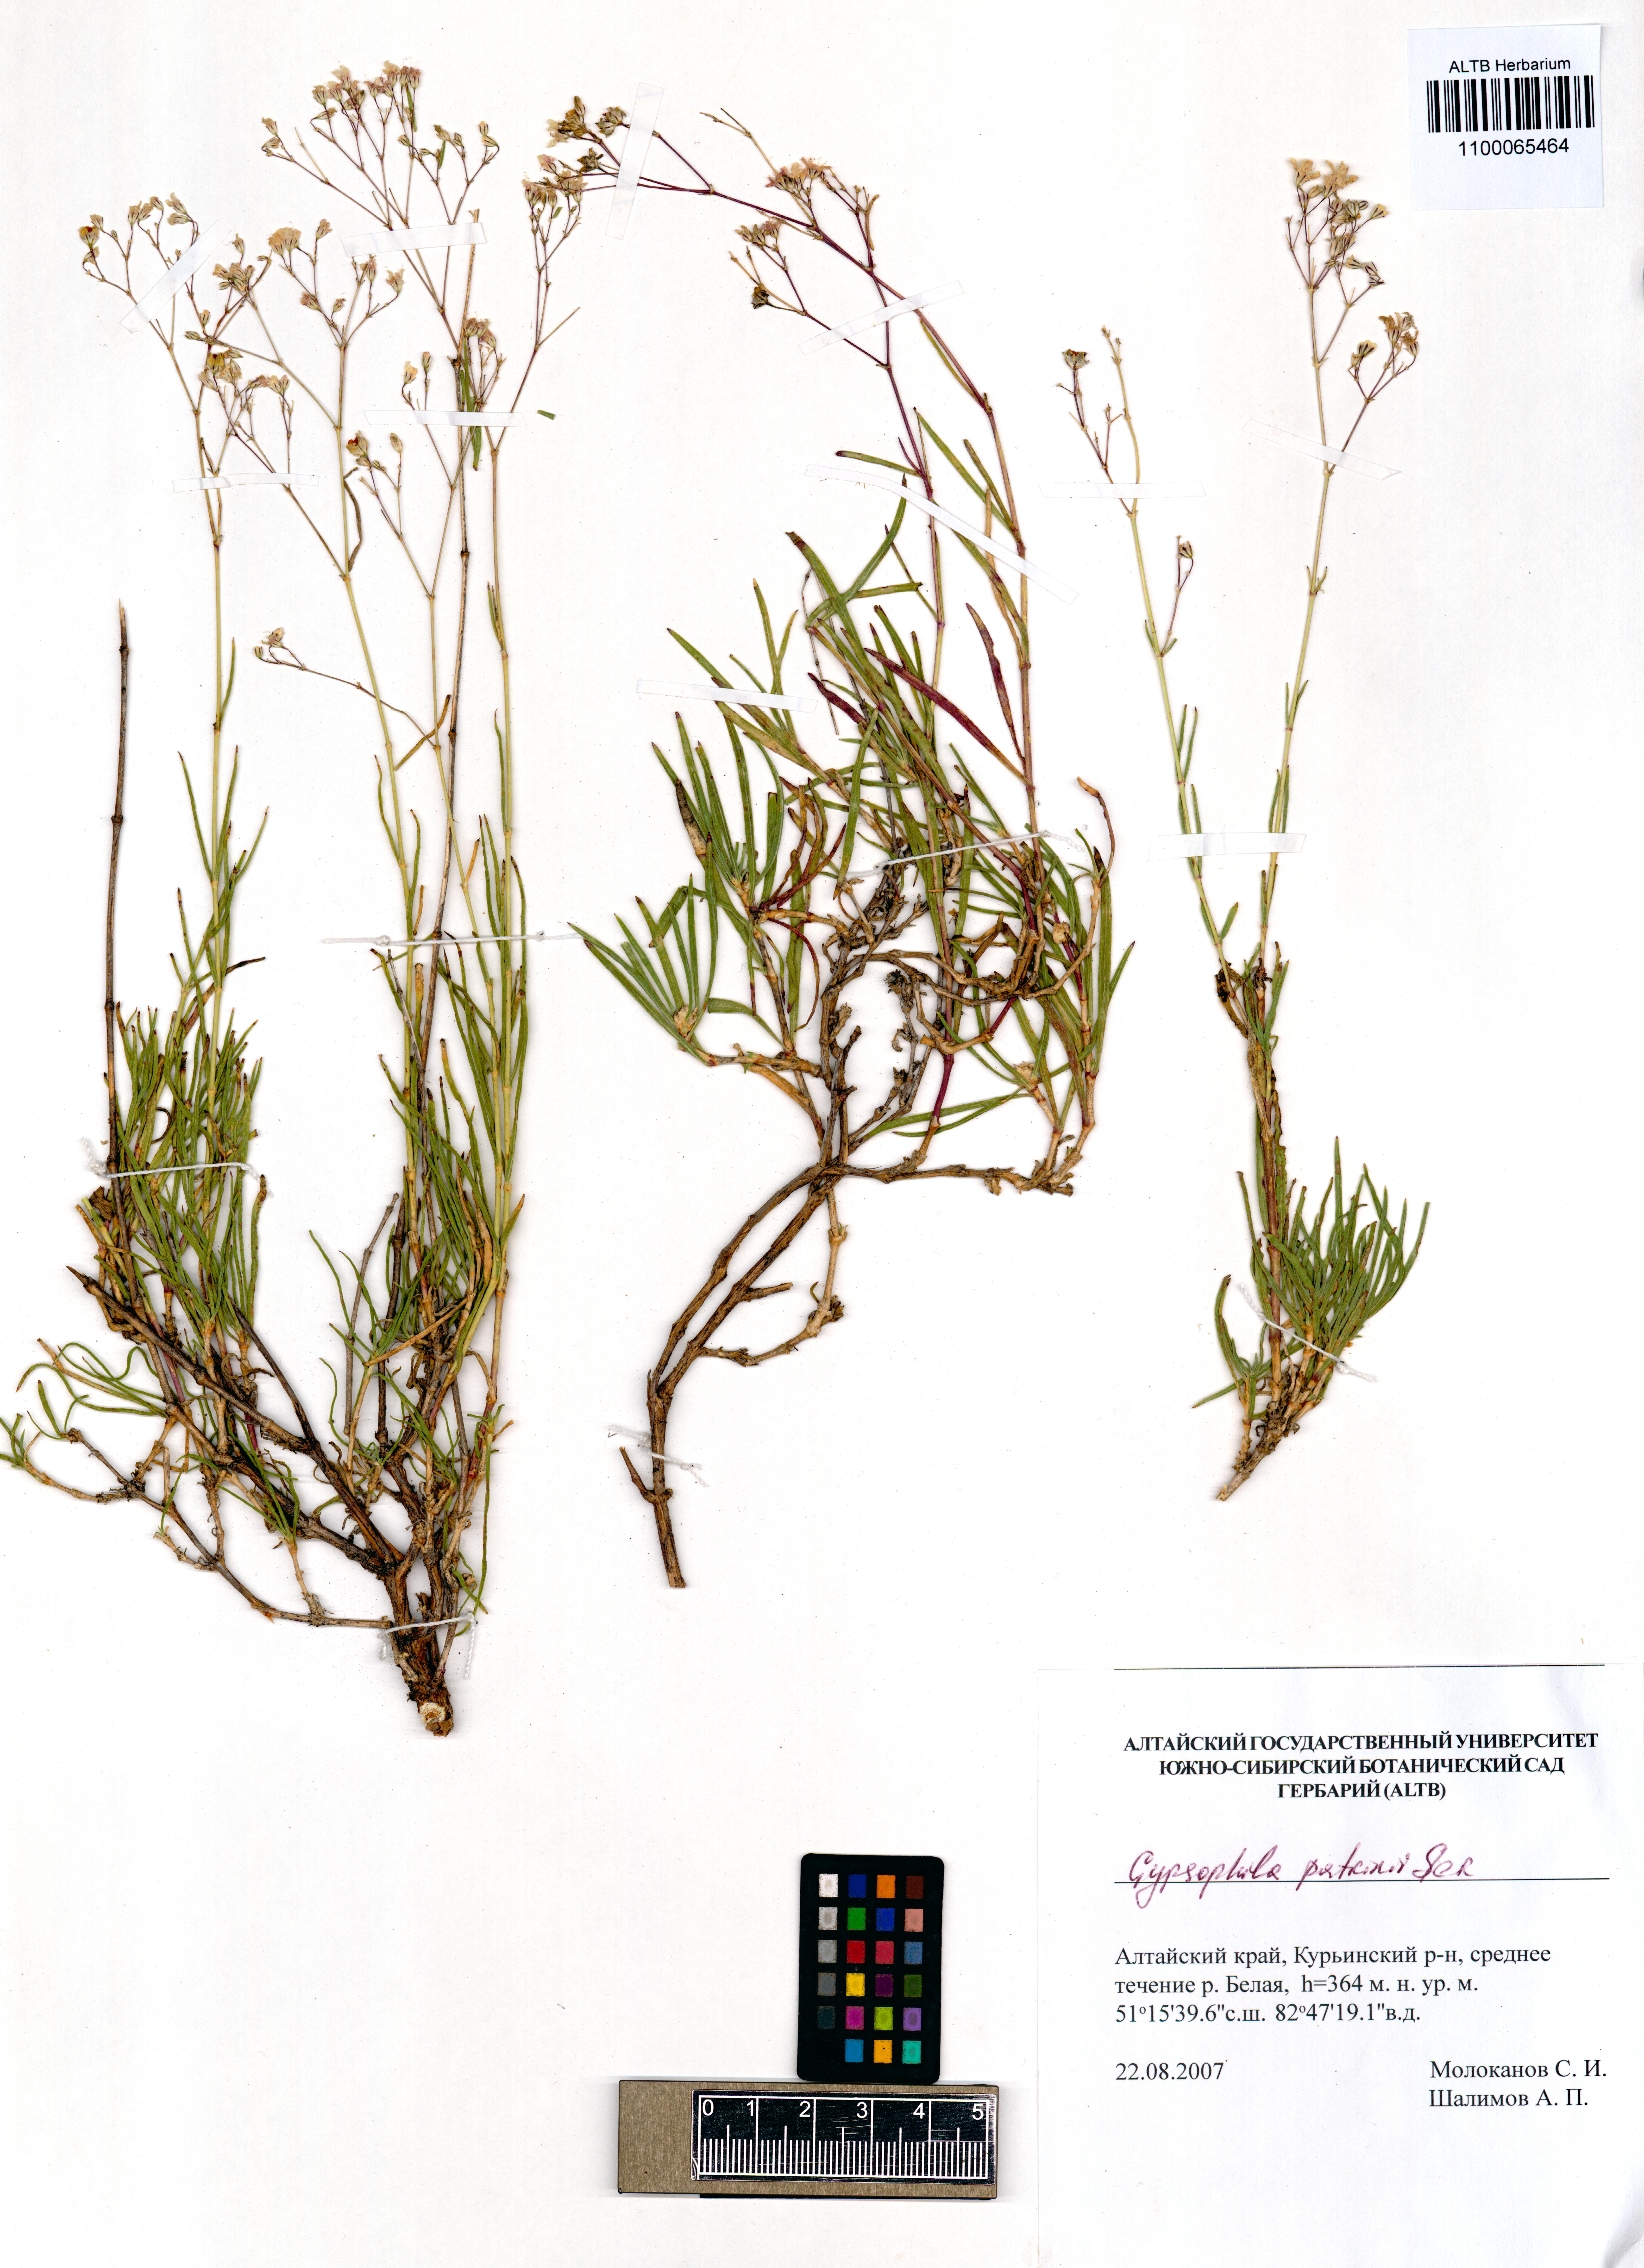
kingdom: Plantae
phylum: Tracheophyta
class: Magnoliopsida
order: Caryophyllales
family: Caryophyllaceae
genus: Gypsophila
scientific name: Gypsophila patrinii
